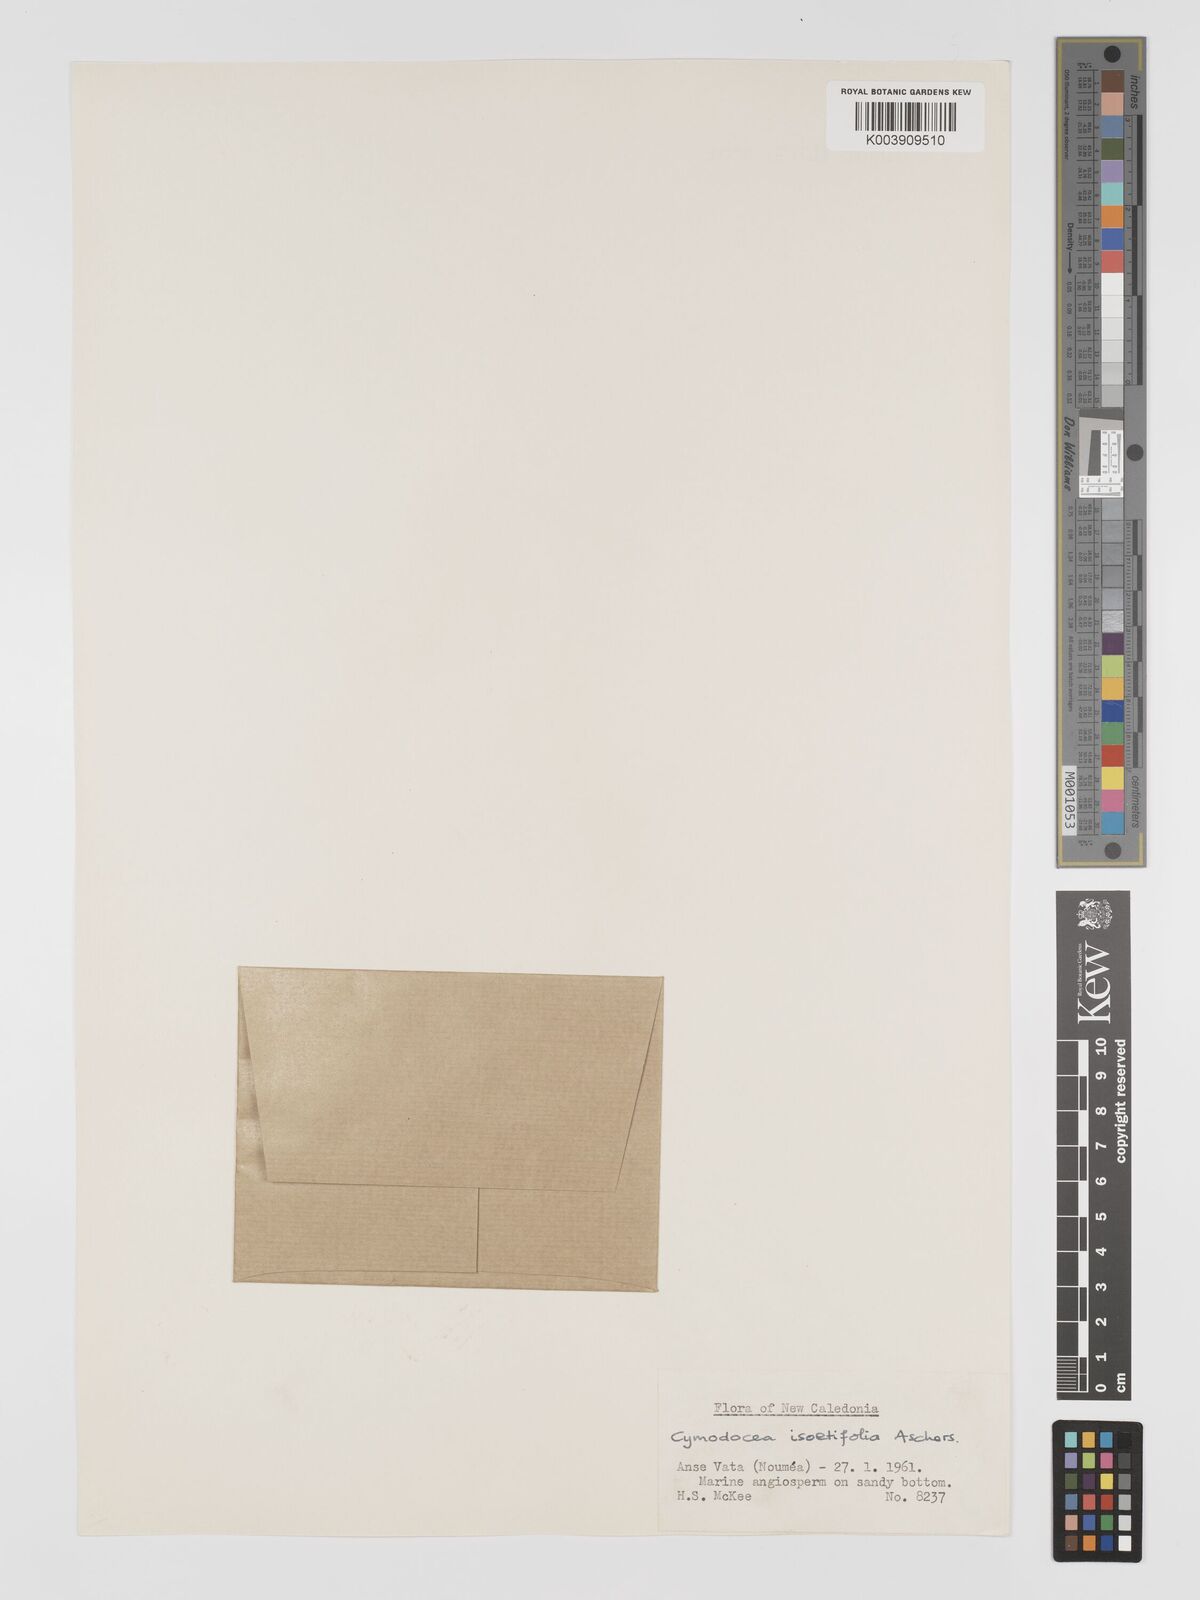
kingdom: Plantae
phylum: Tracheophyta
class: Liliopsida
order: Alismatales
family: Cymodoceaceae
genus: Syringodium
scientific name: Syringodium isoetifolium
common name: Species code: si
